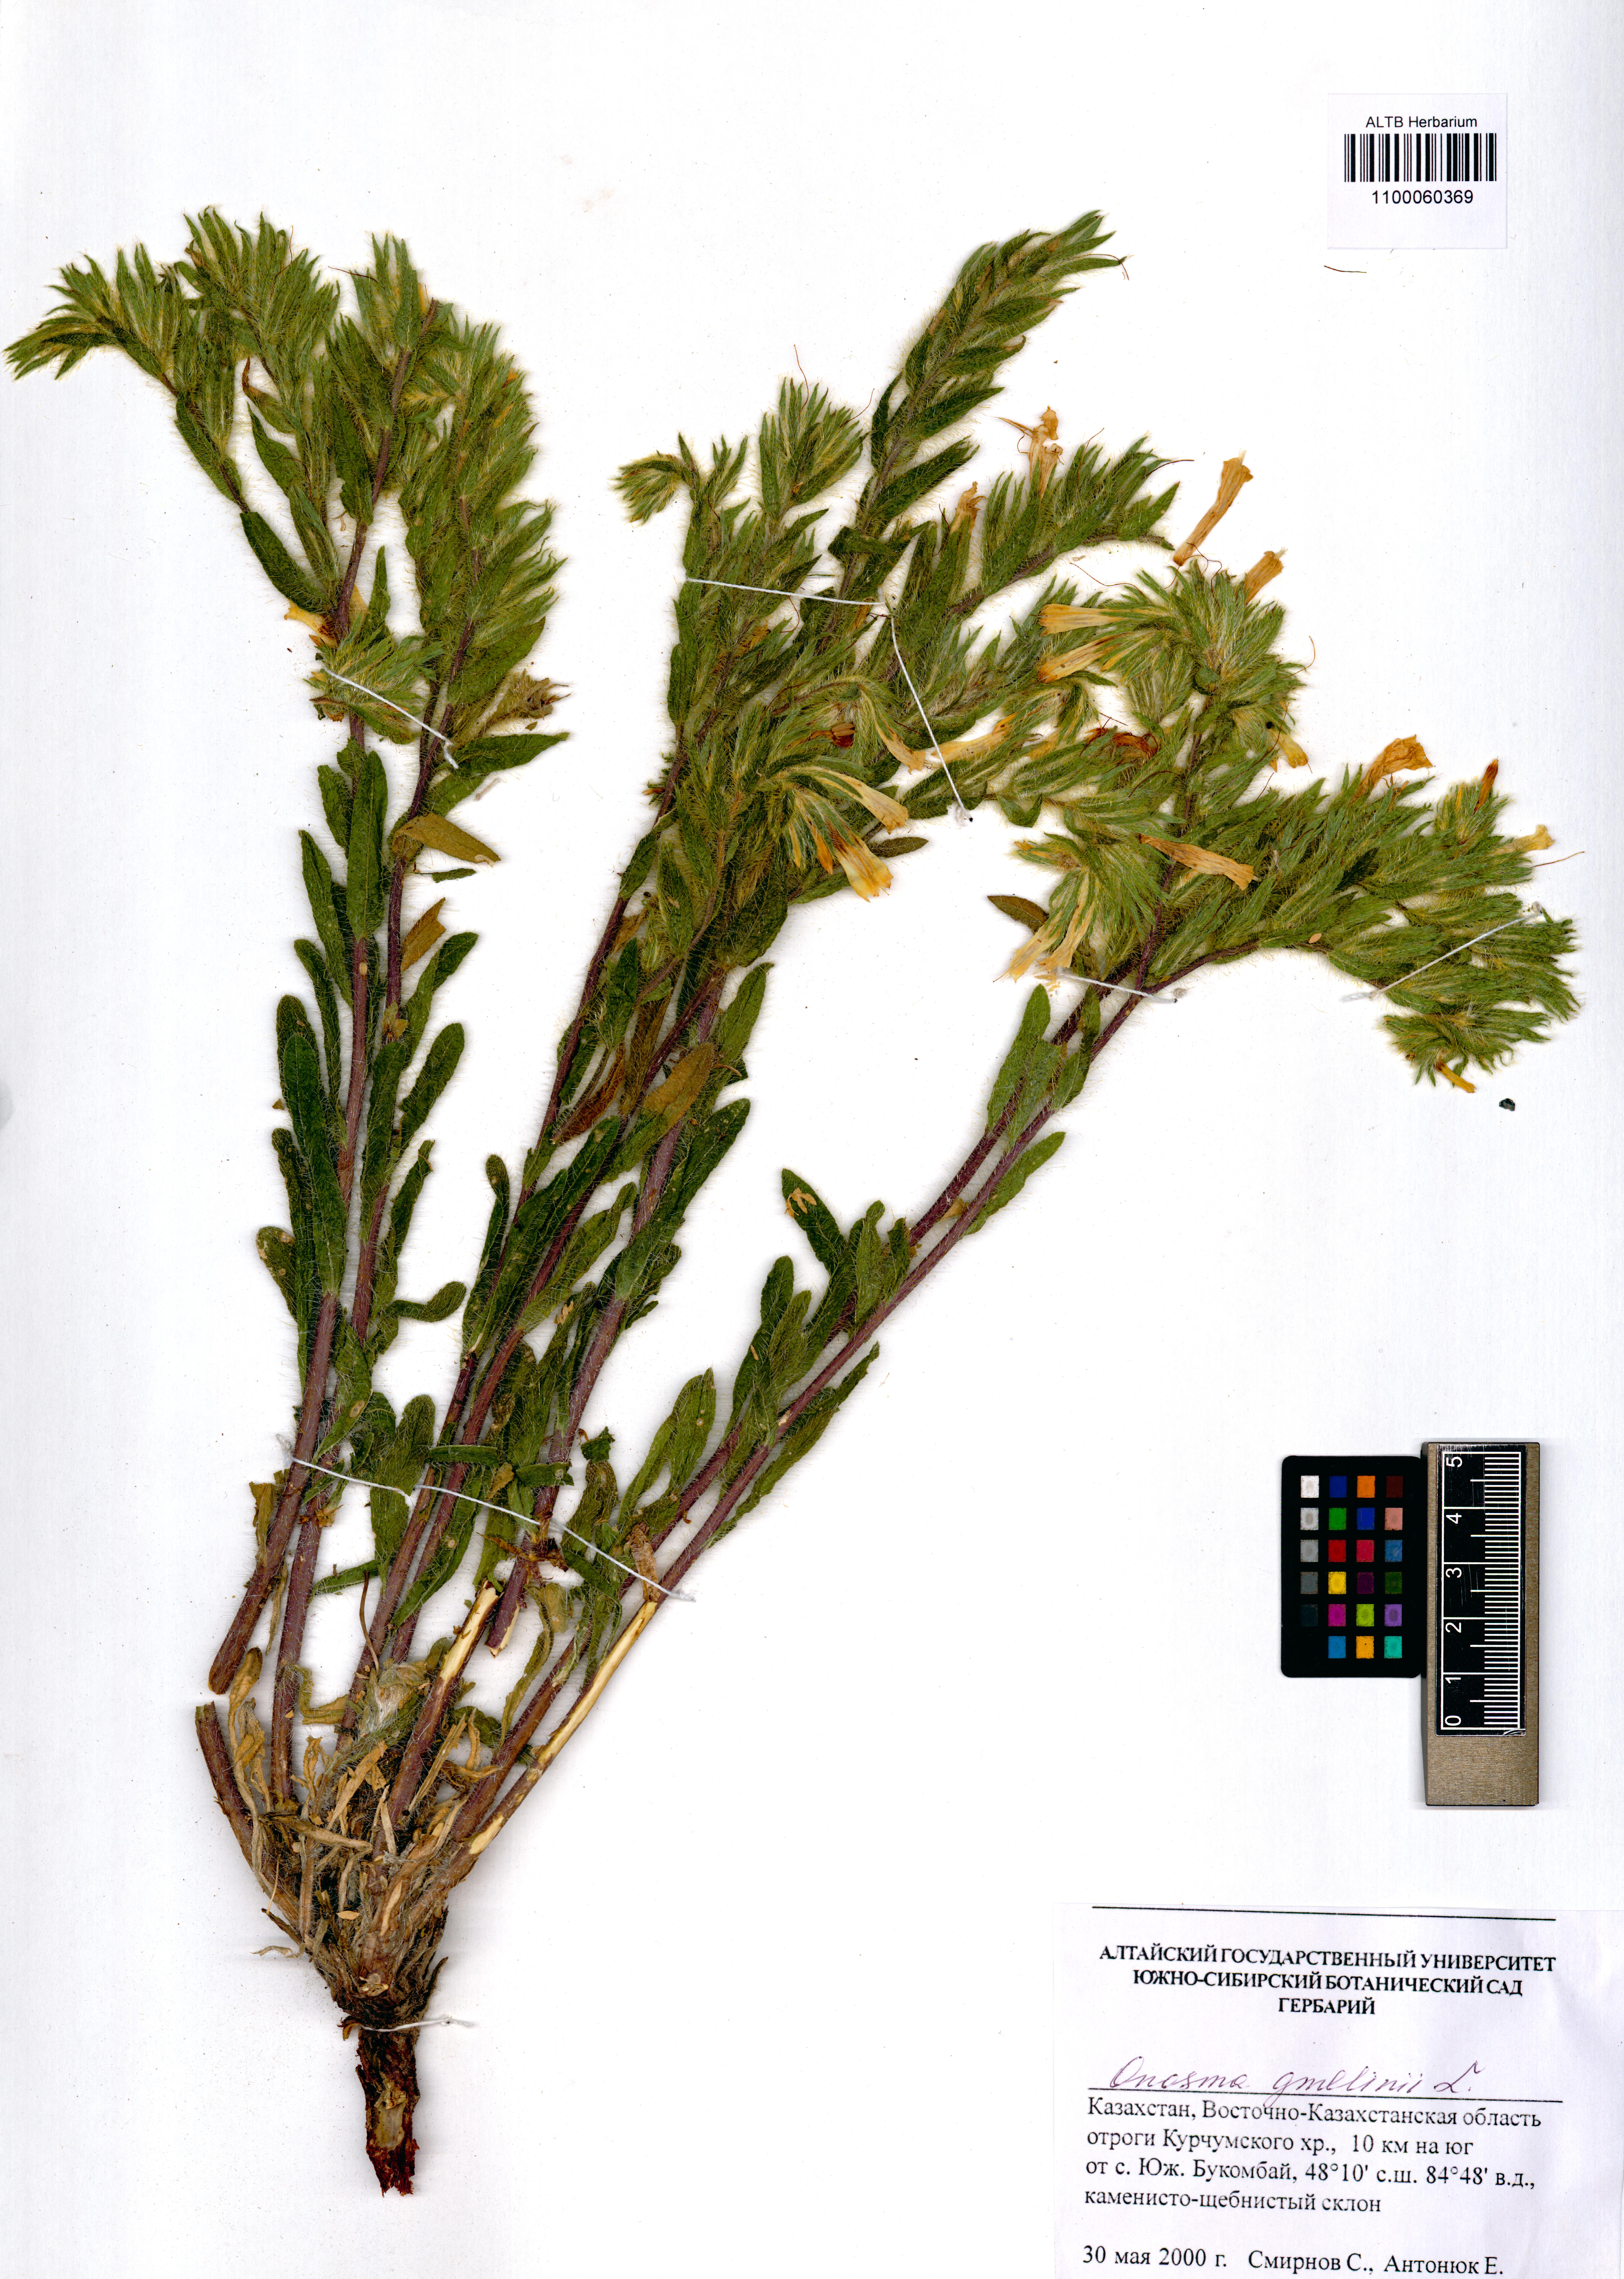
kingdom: Plantae
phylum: Tracheophyta
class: Magnoliopsida
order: Boraginales
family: Boraginaceae
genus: Onosma
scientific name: Onosma gmelinii
